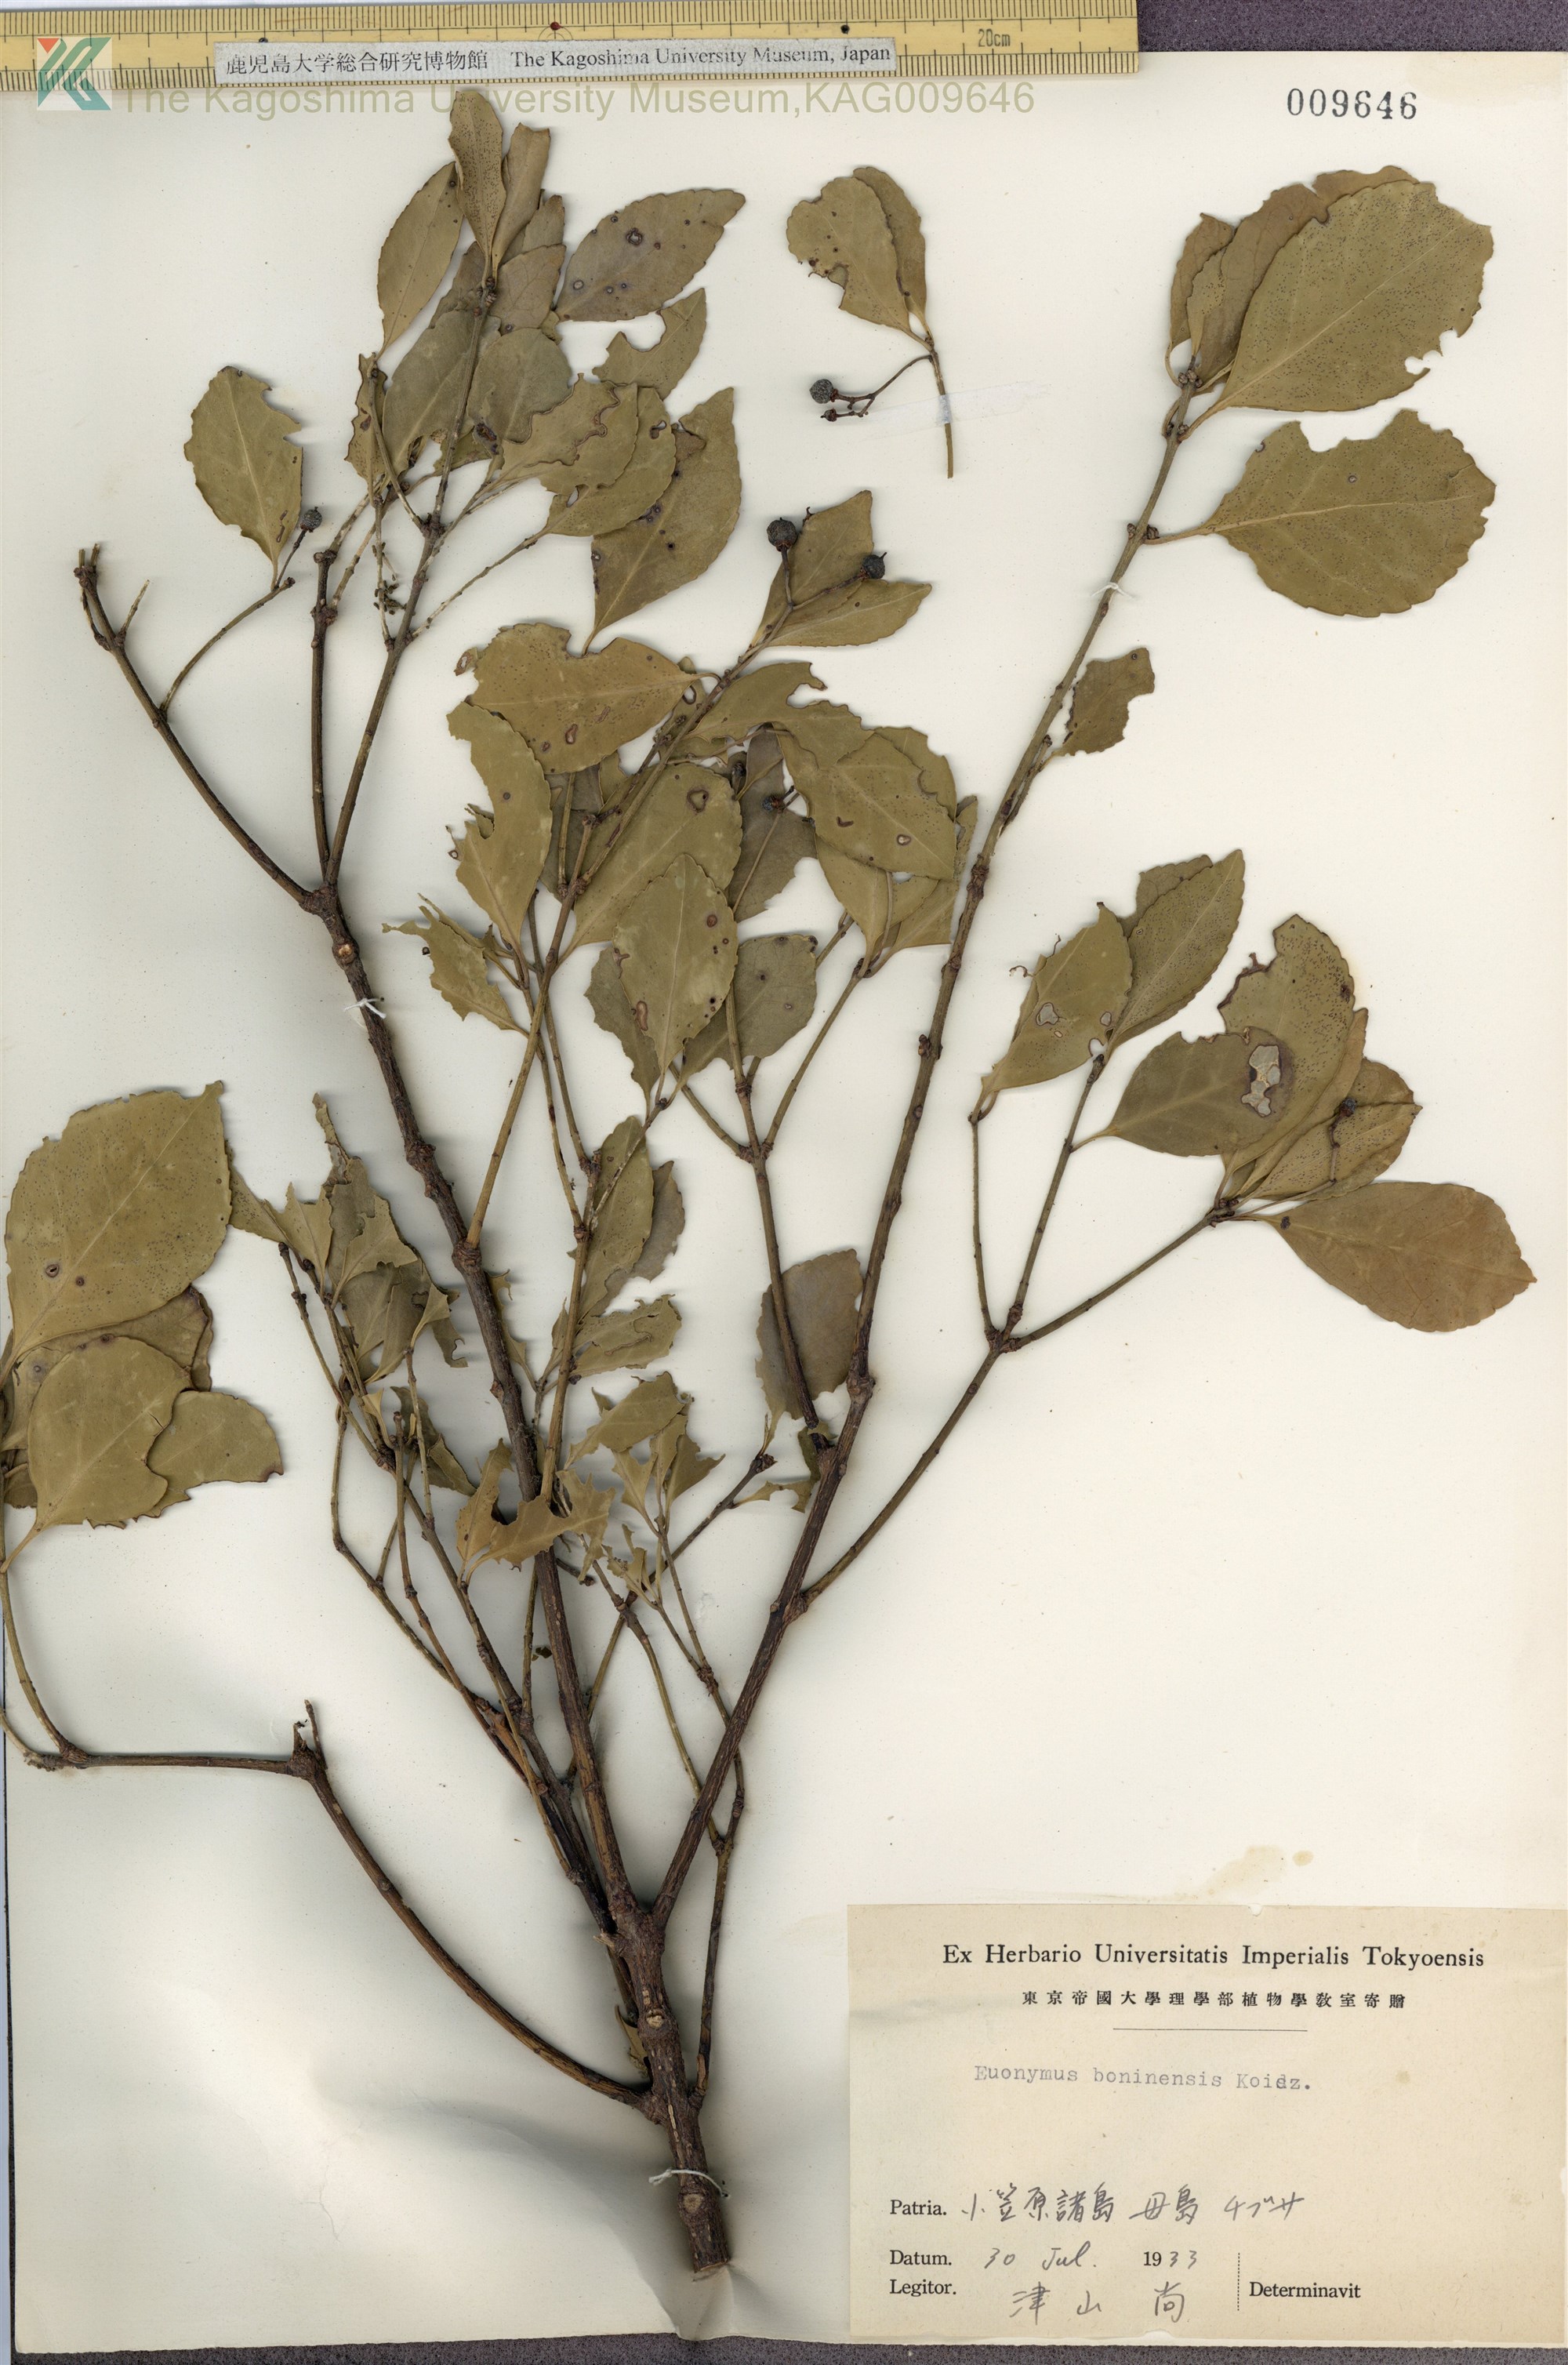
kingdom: Plantae
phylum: Tracheophyta
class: Magnoliopsida
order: Celastrales
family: Celastraceae
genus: Euonymus
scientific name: Euonymus japonicus
